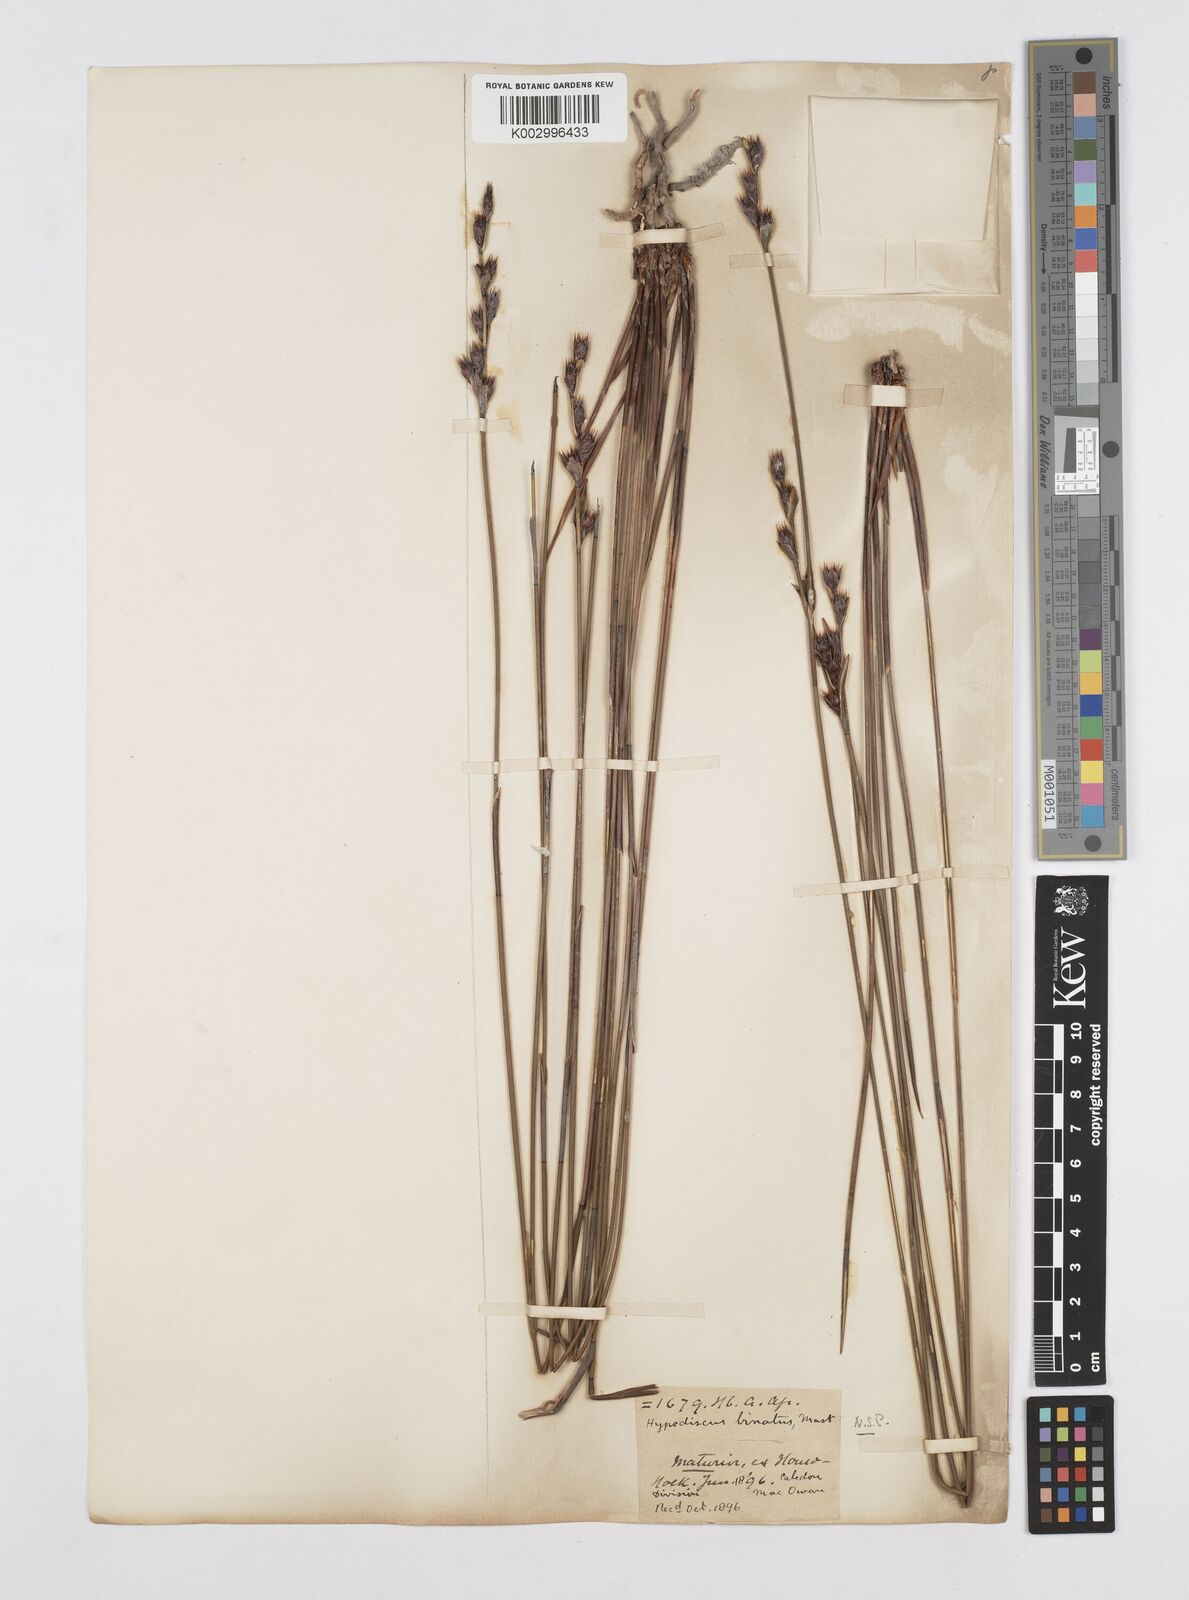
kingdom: Plantae
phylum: Tracheophyta
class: Liliopsida
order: Poales
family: Restionaceae
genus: Hypodiscus
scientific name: Hypodiscus laevigatus
